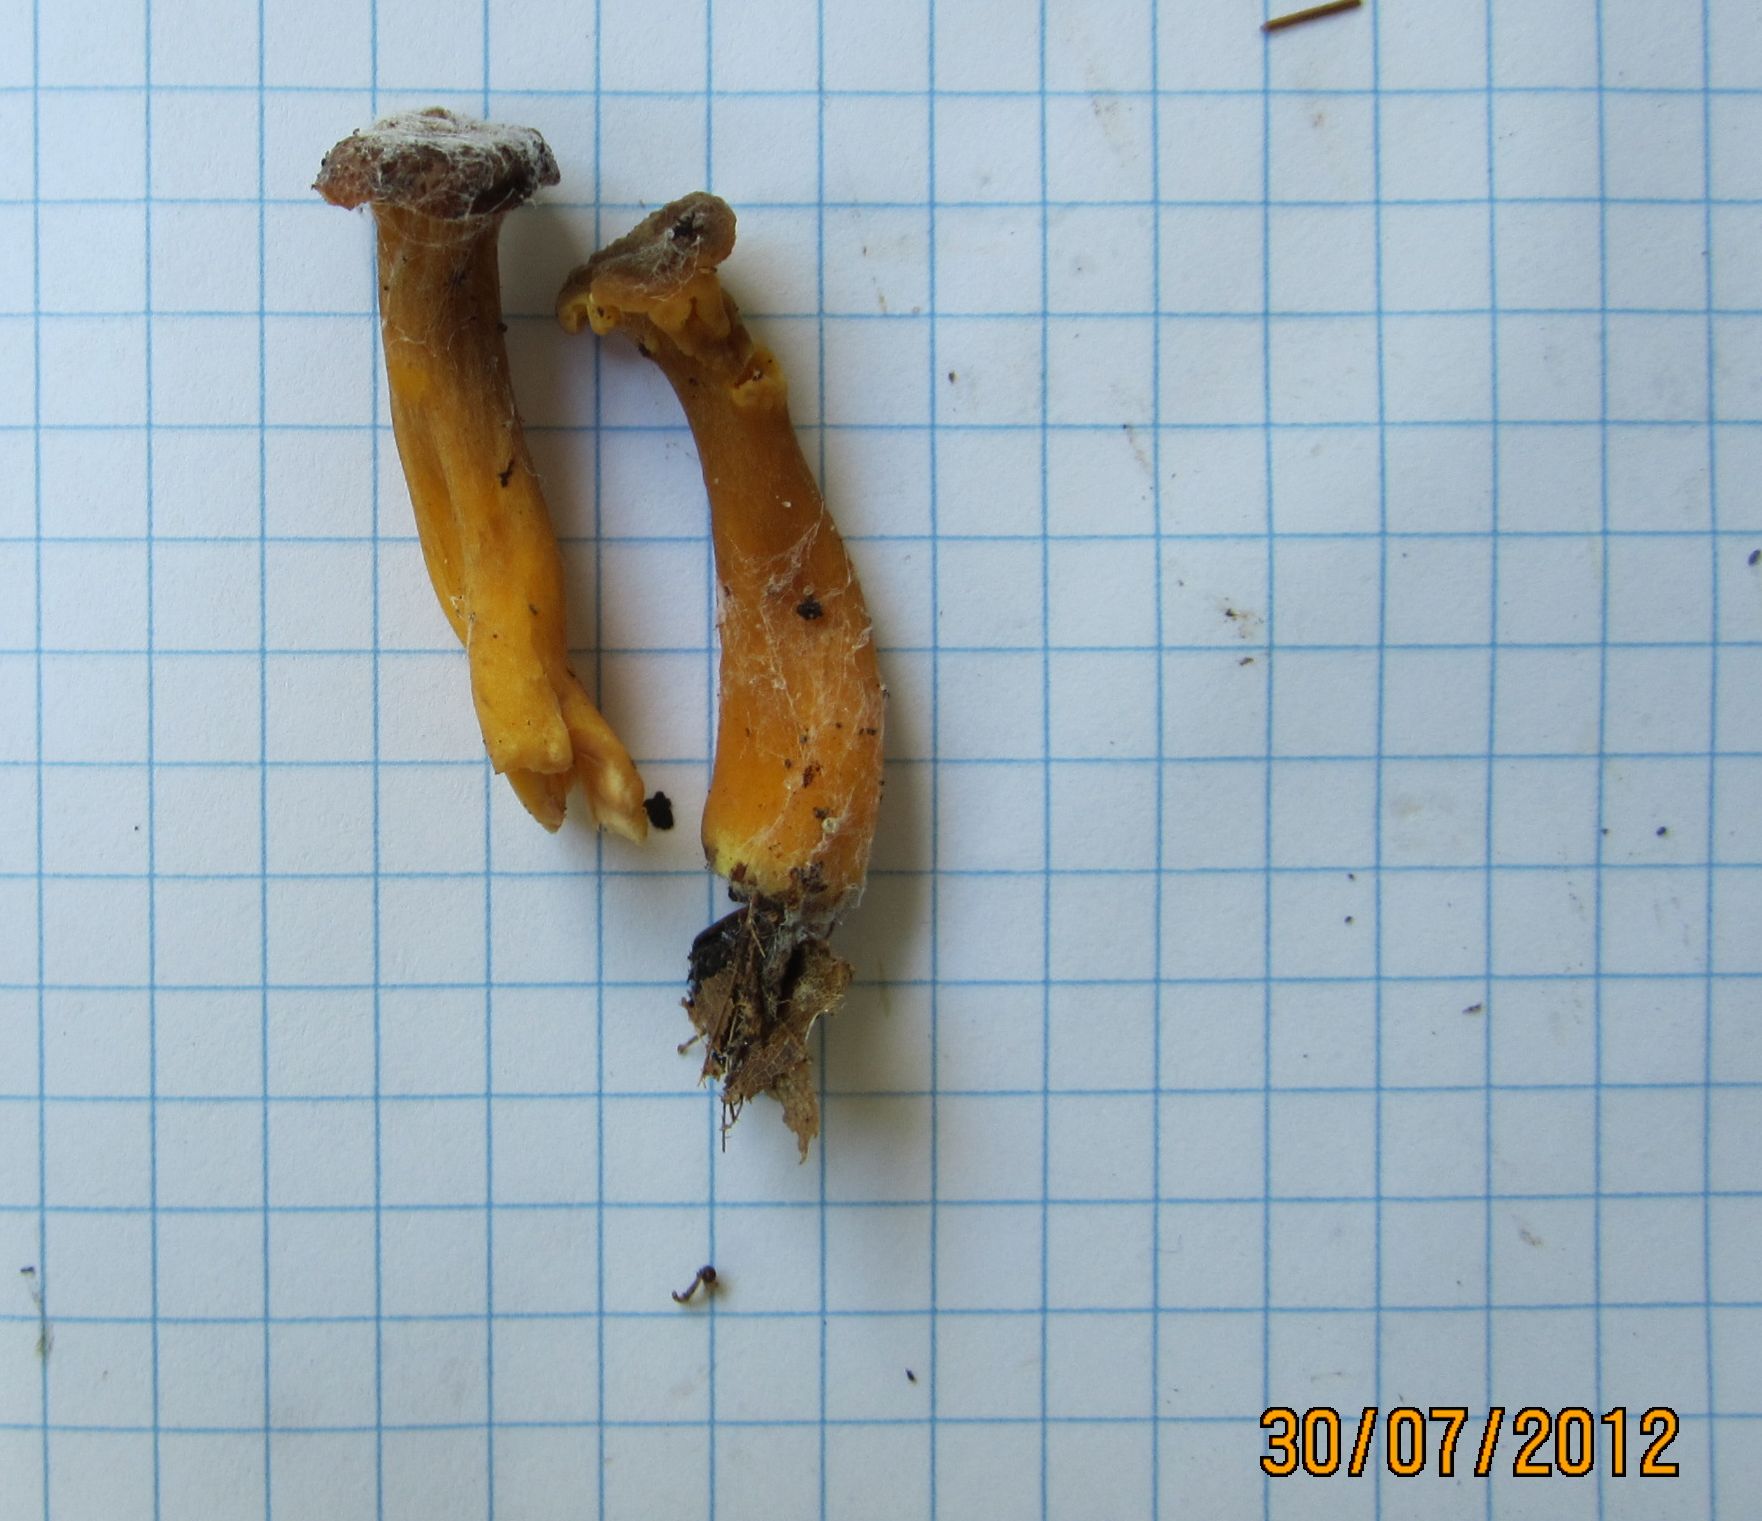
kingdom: Fungi
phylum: Basidiomycota
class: Agaricomycetes
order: Cantharellales
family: Hydnaceae
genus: Craterellus
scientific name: Craterellus tubaeformis
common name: tragt-kantarel
